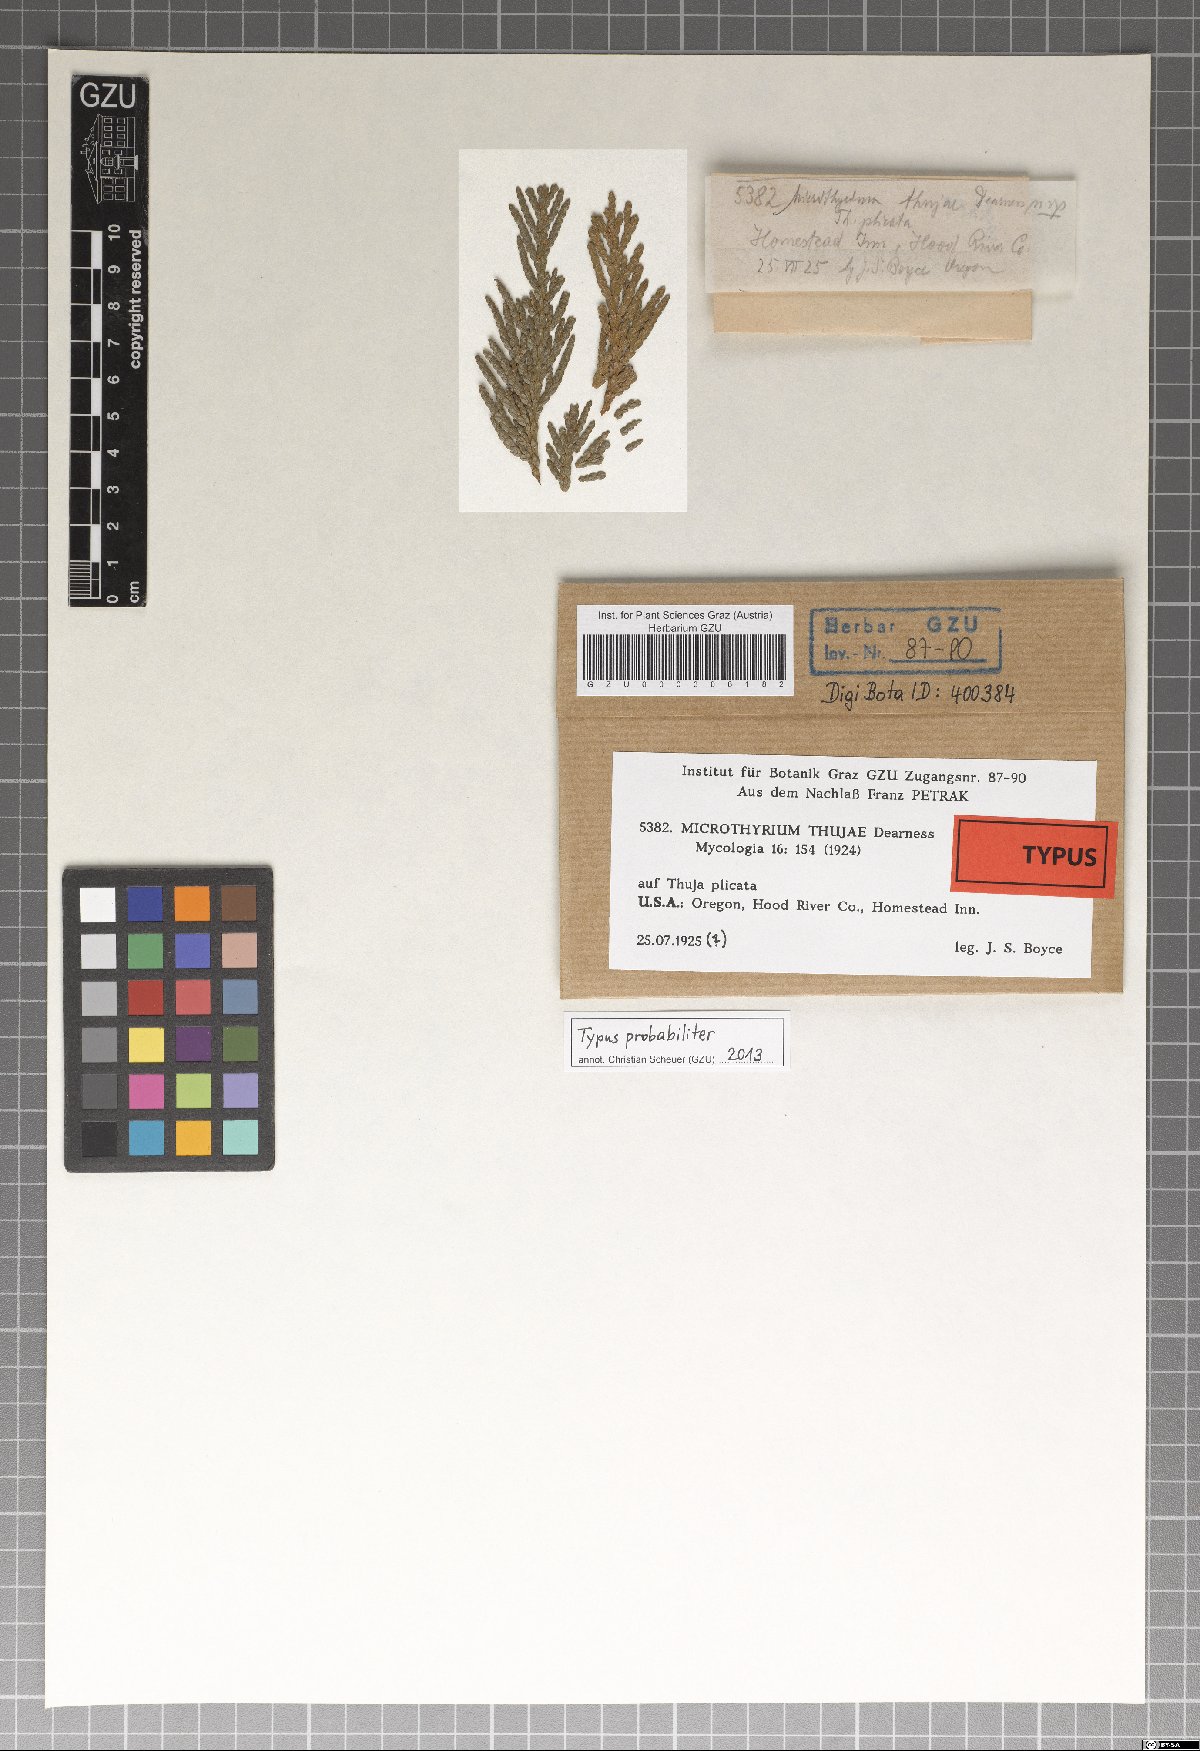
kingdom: Fungi
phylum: Ascomycota
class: Dothideomycetes
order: Microthyriales
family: Microthyriaceae
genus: Microthyrium
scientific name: Microthyrium thujae
